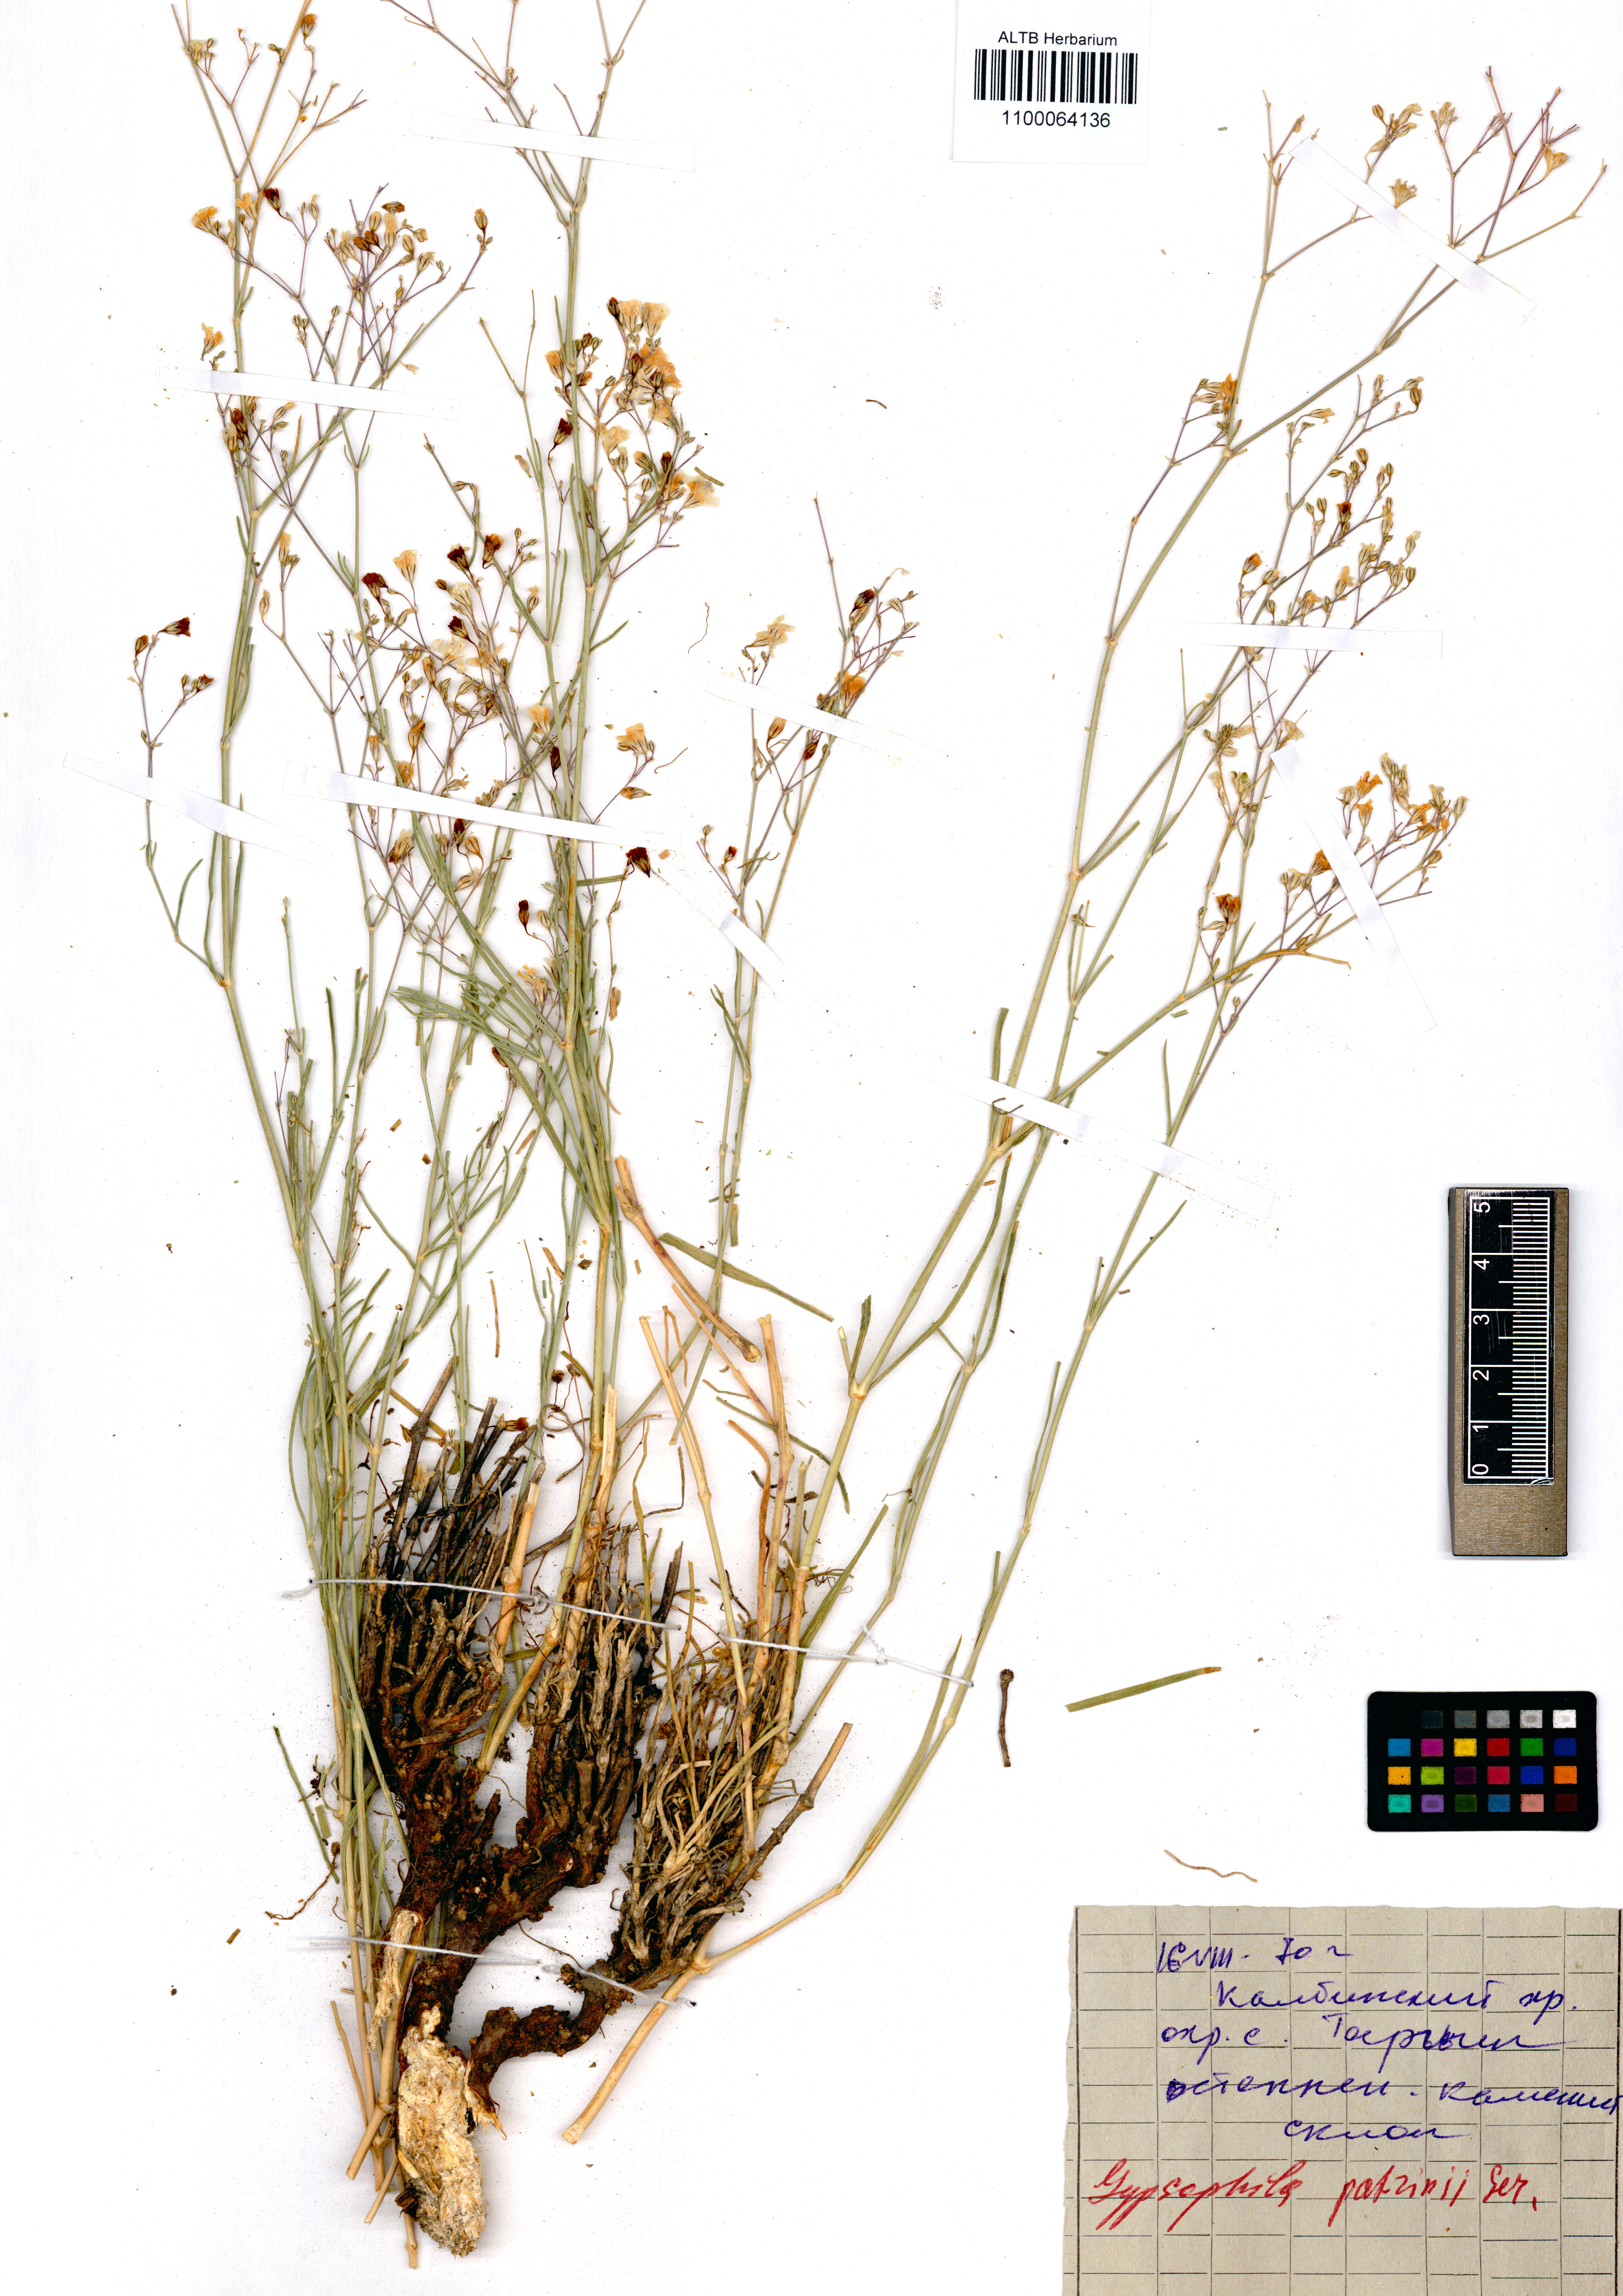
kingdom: Plantae
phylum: Tracheophyta
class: Magnoliopsida
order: Caryophyllales
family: Caryophyllaceae
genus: Gypsophila
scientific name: Gypsophila patrinii
